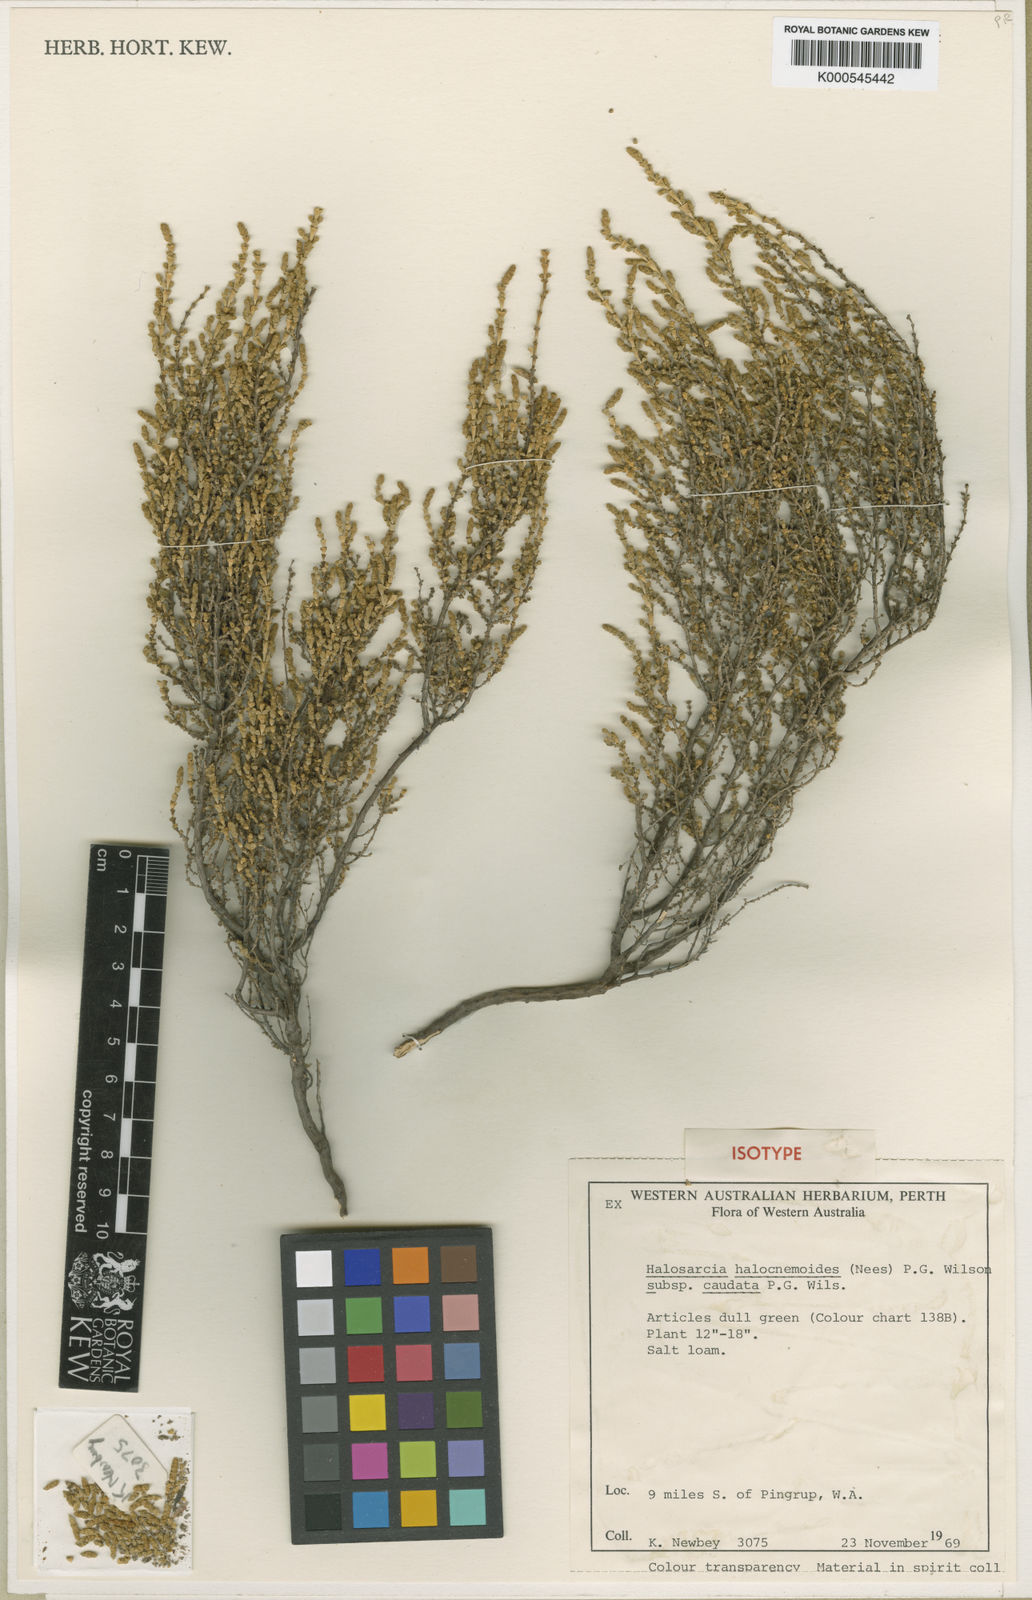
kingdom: Plantae
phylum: Tracheophyta
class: Magnoliopsida
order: Caryophyllales
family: Amaranthaceae
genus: Tecticornia
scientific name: Tecticornia halocnemoides
